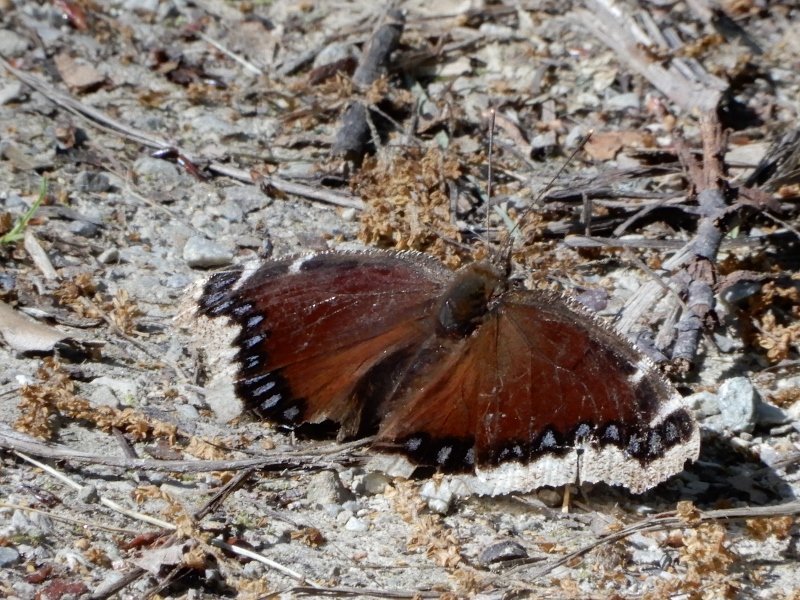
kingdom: Animalia
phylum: Arthropoda
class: Insecta
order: Lepidoptera
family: Nymphalidae
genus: Nymphalis
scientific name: Nymphalis antiopa
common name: Mourning Cloak
